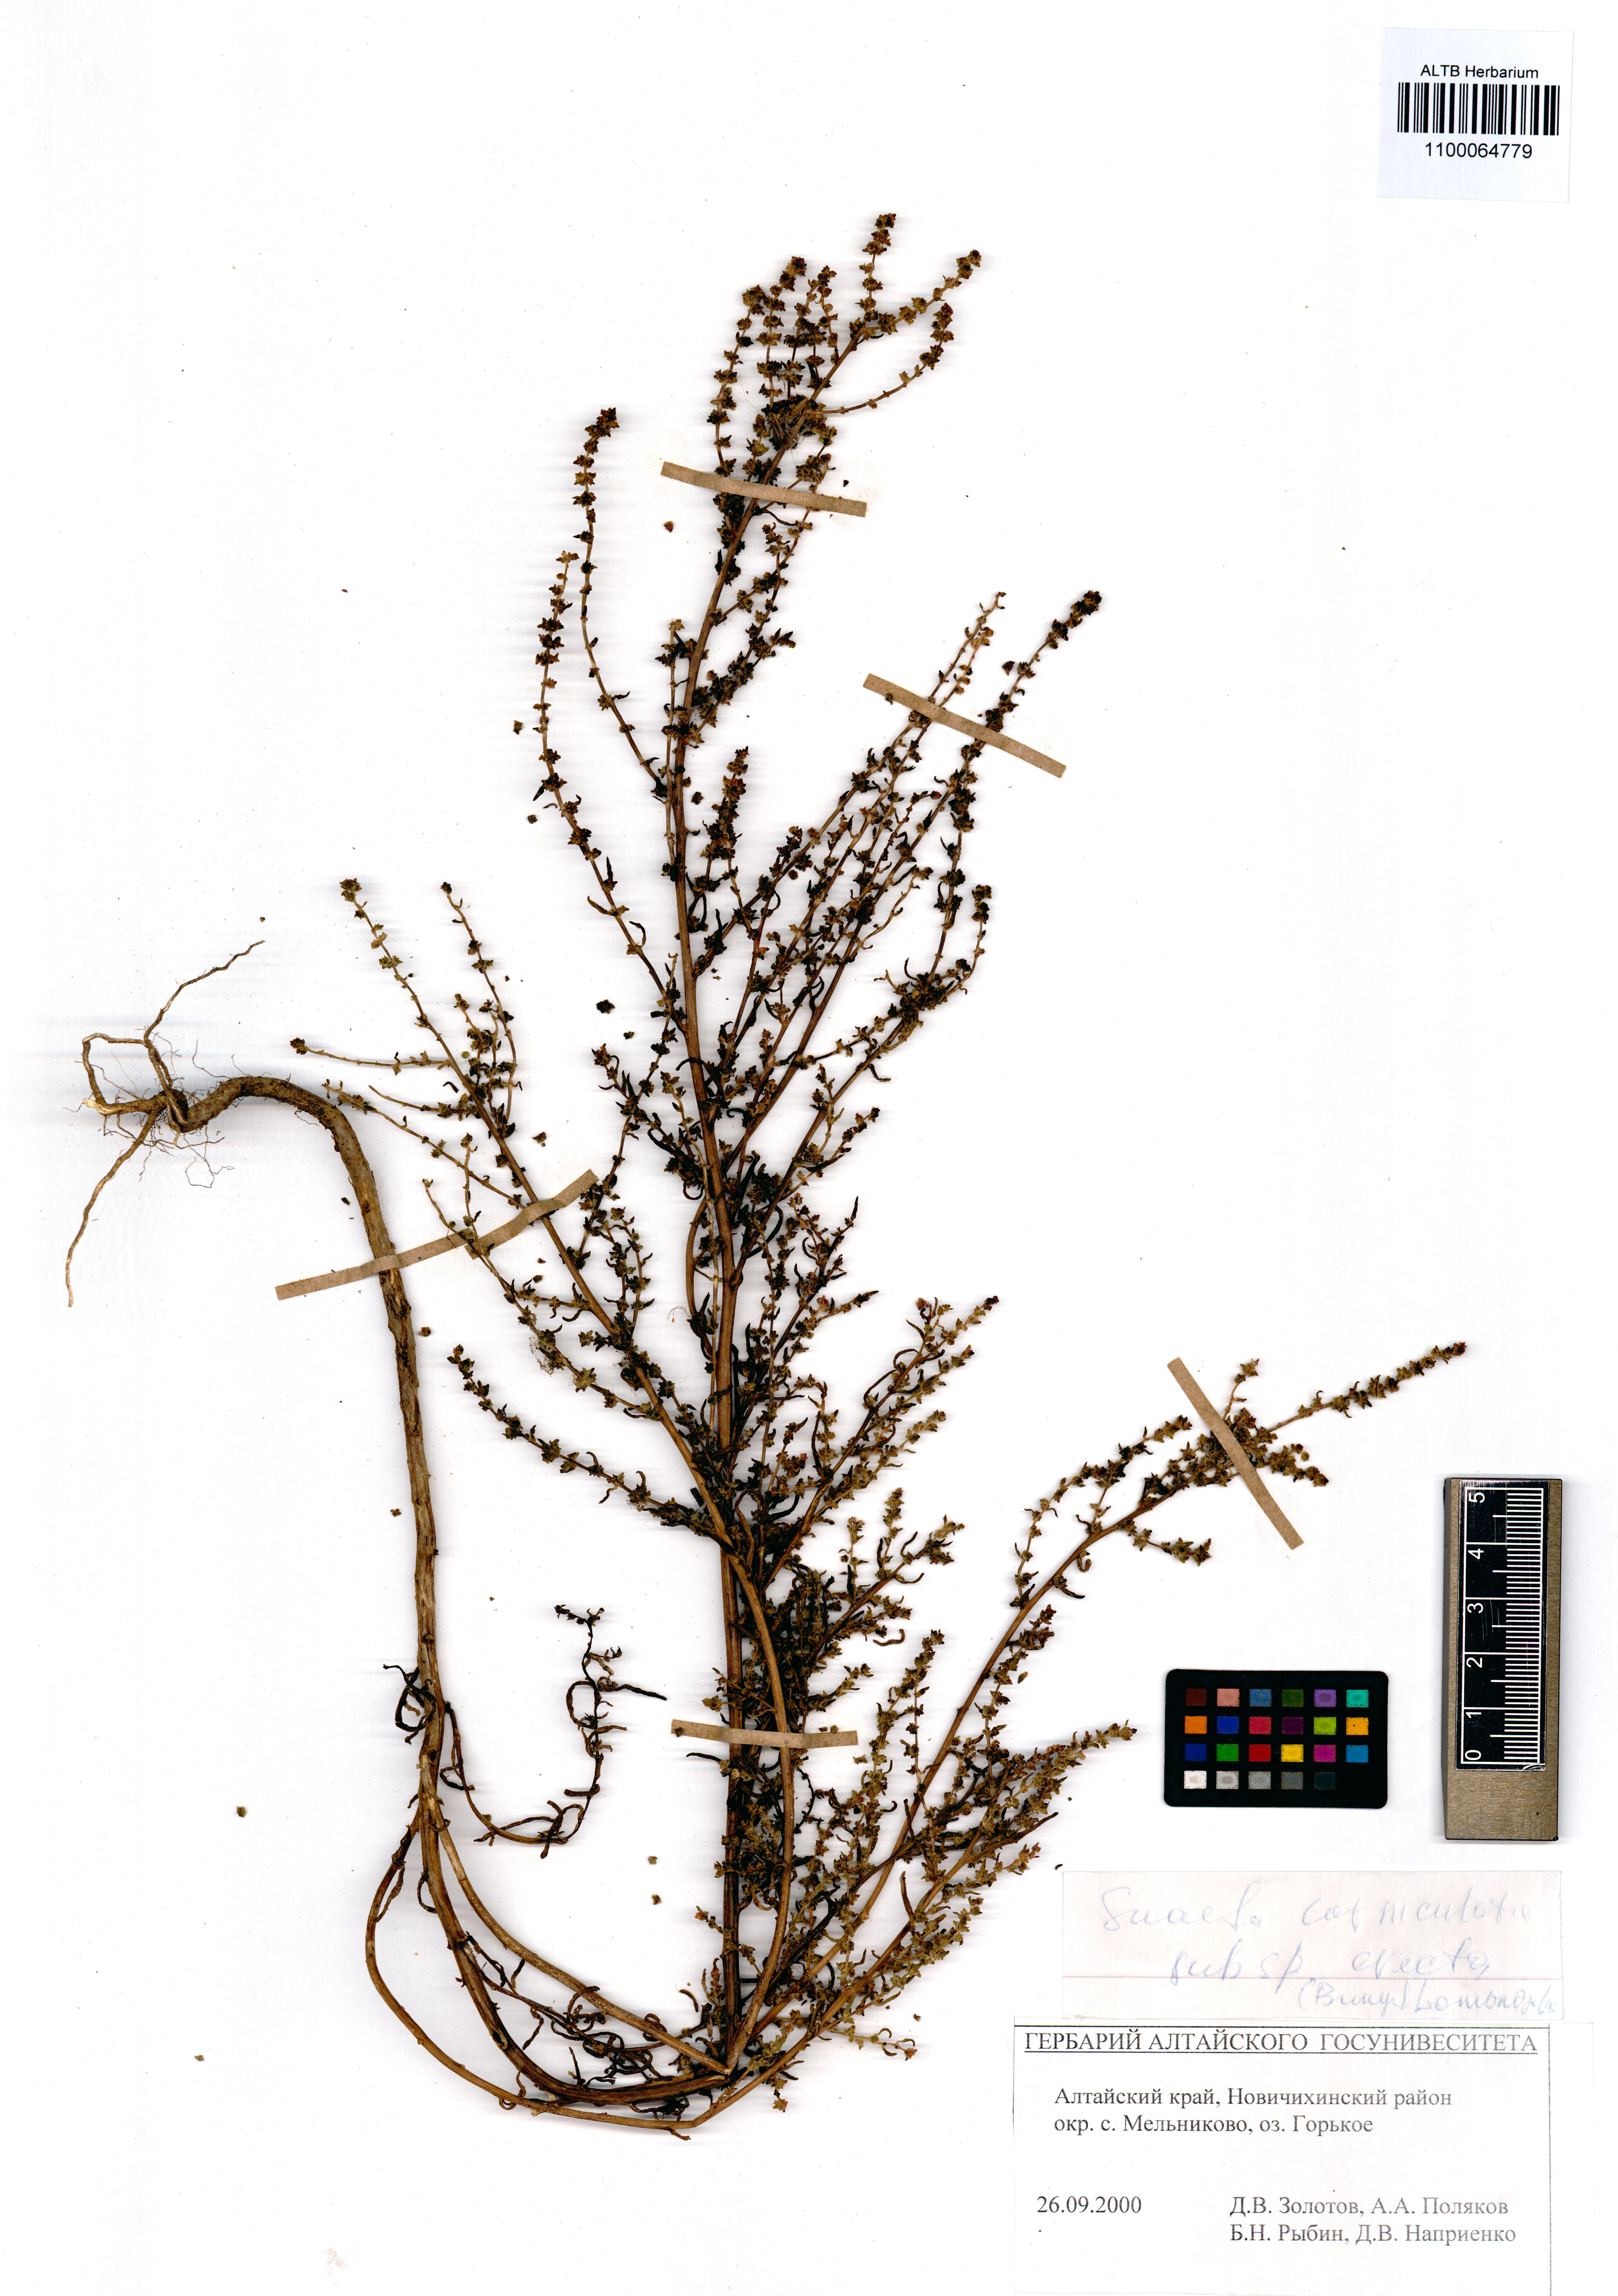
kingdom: Plantae
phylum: Tracheophyta
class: Magnoliopsida
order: Caryophyllales
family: Amaranthaceae
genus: Suaeda
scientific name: Suaeda corniculata
